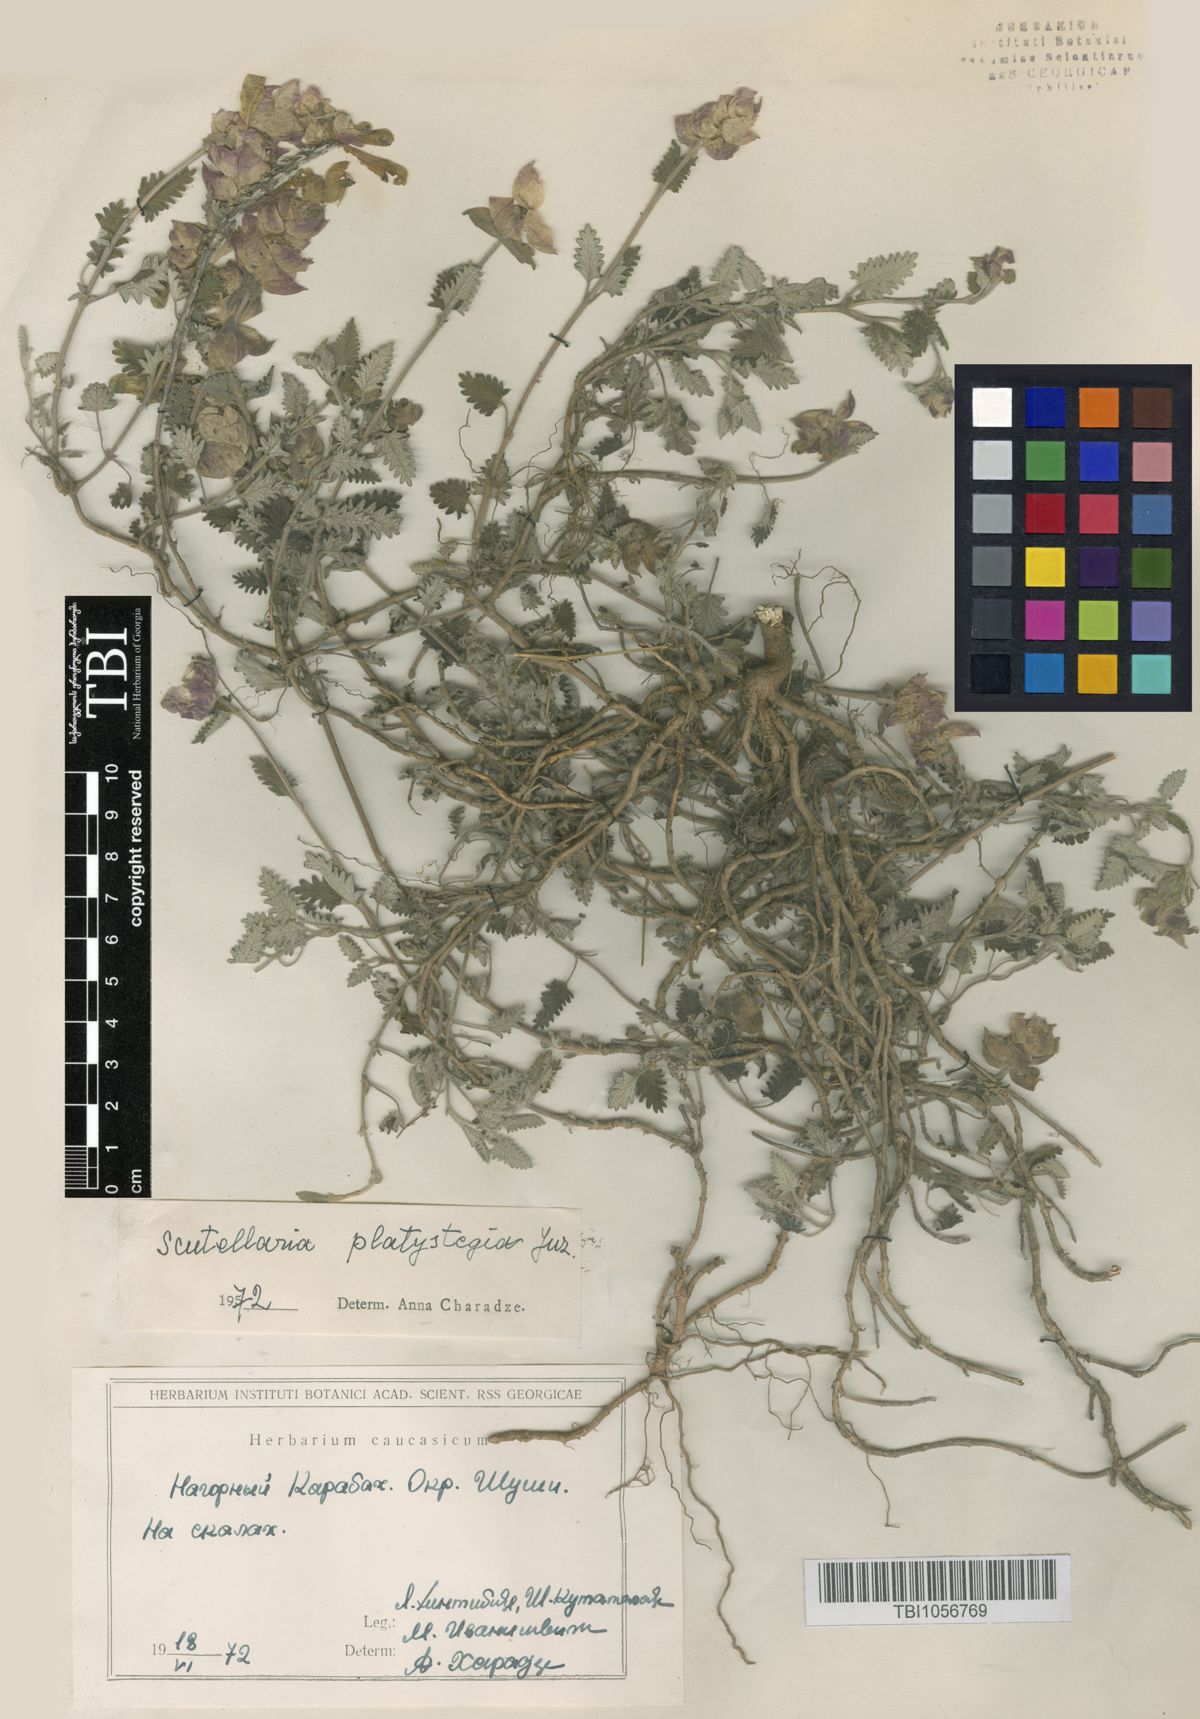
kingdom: Plantae
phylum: Tracheophyta
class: Magnoliopsida
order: Lamiales
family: Lamiaceae
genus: Scutellaria
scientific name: Scutellaria platystegia
